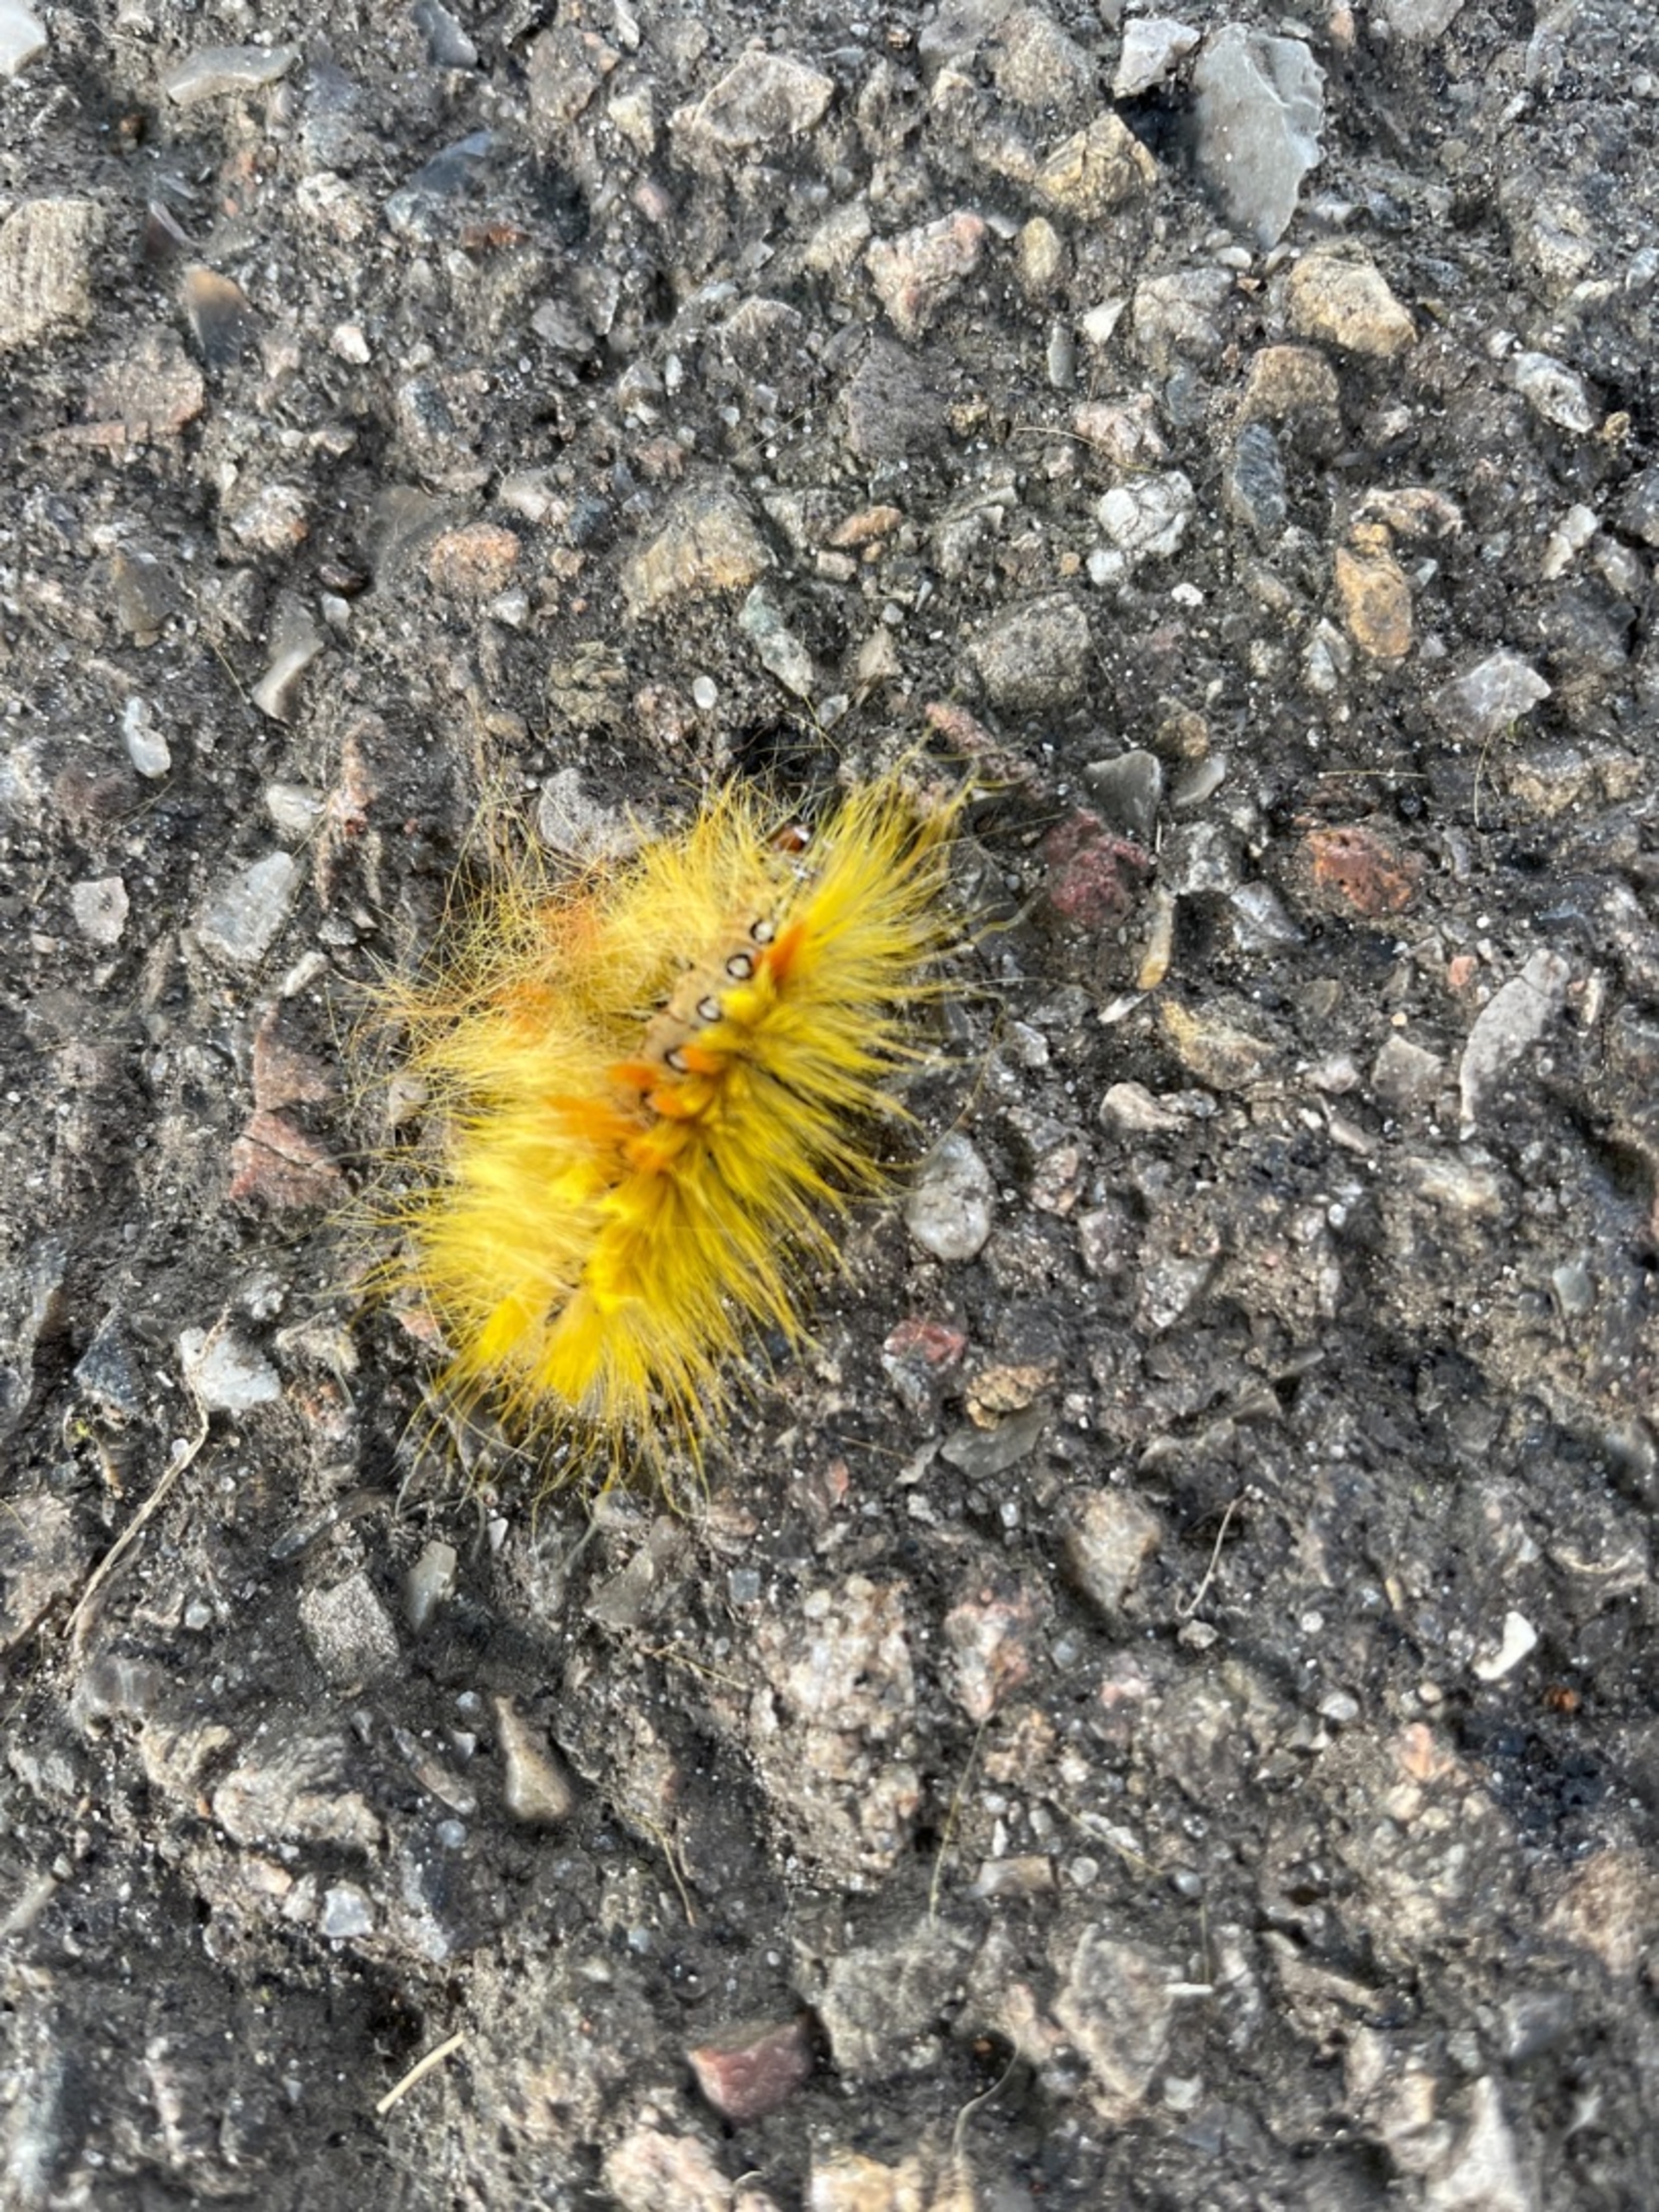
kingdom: Animalia
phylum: Arthropoda
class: Insecta
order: Lepidoptera
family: Noctuidae
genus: Acronicta
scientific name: Acronicta aceris
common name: Ahornugle
